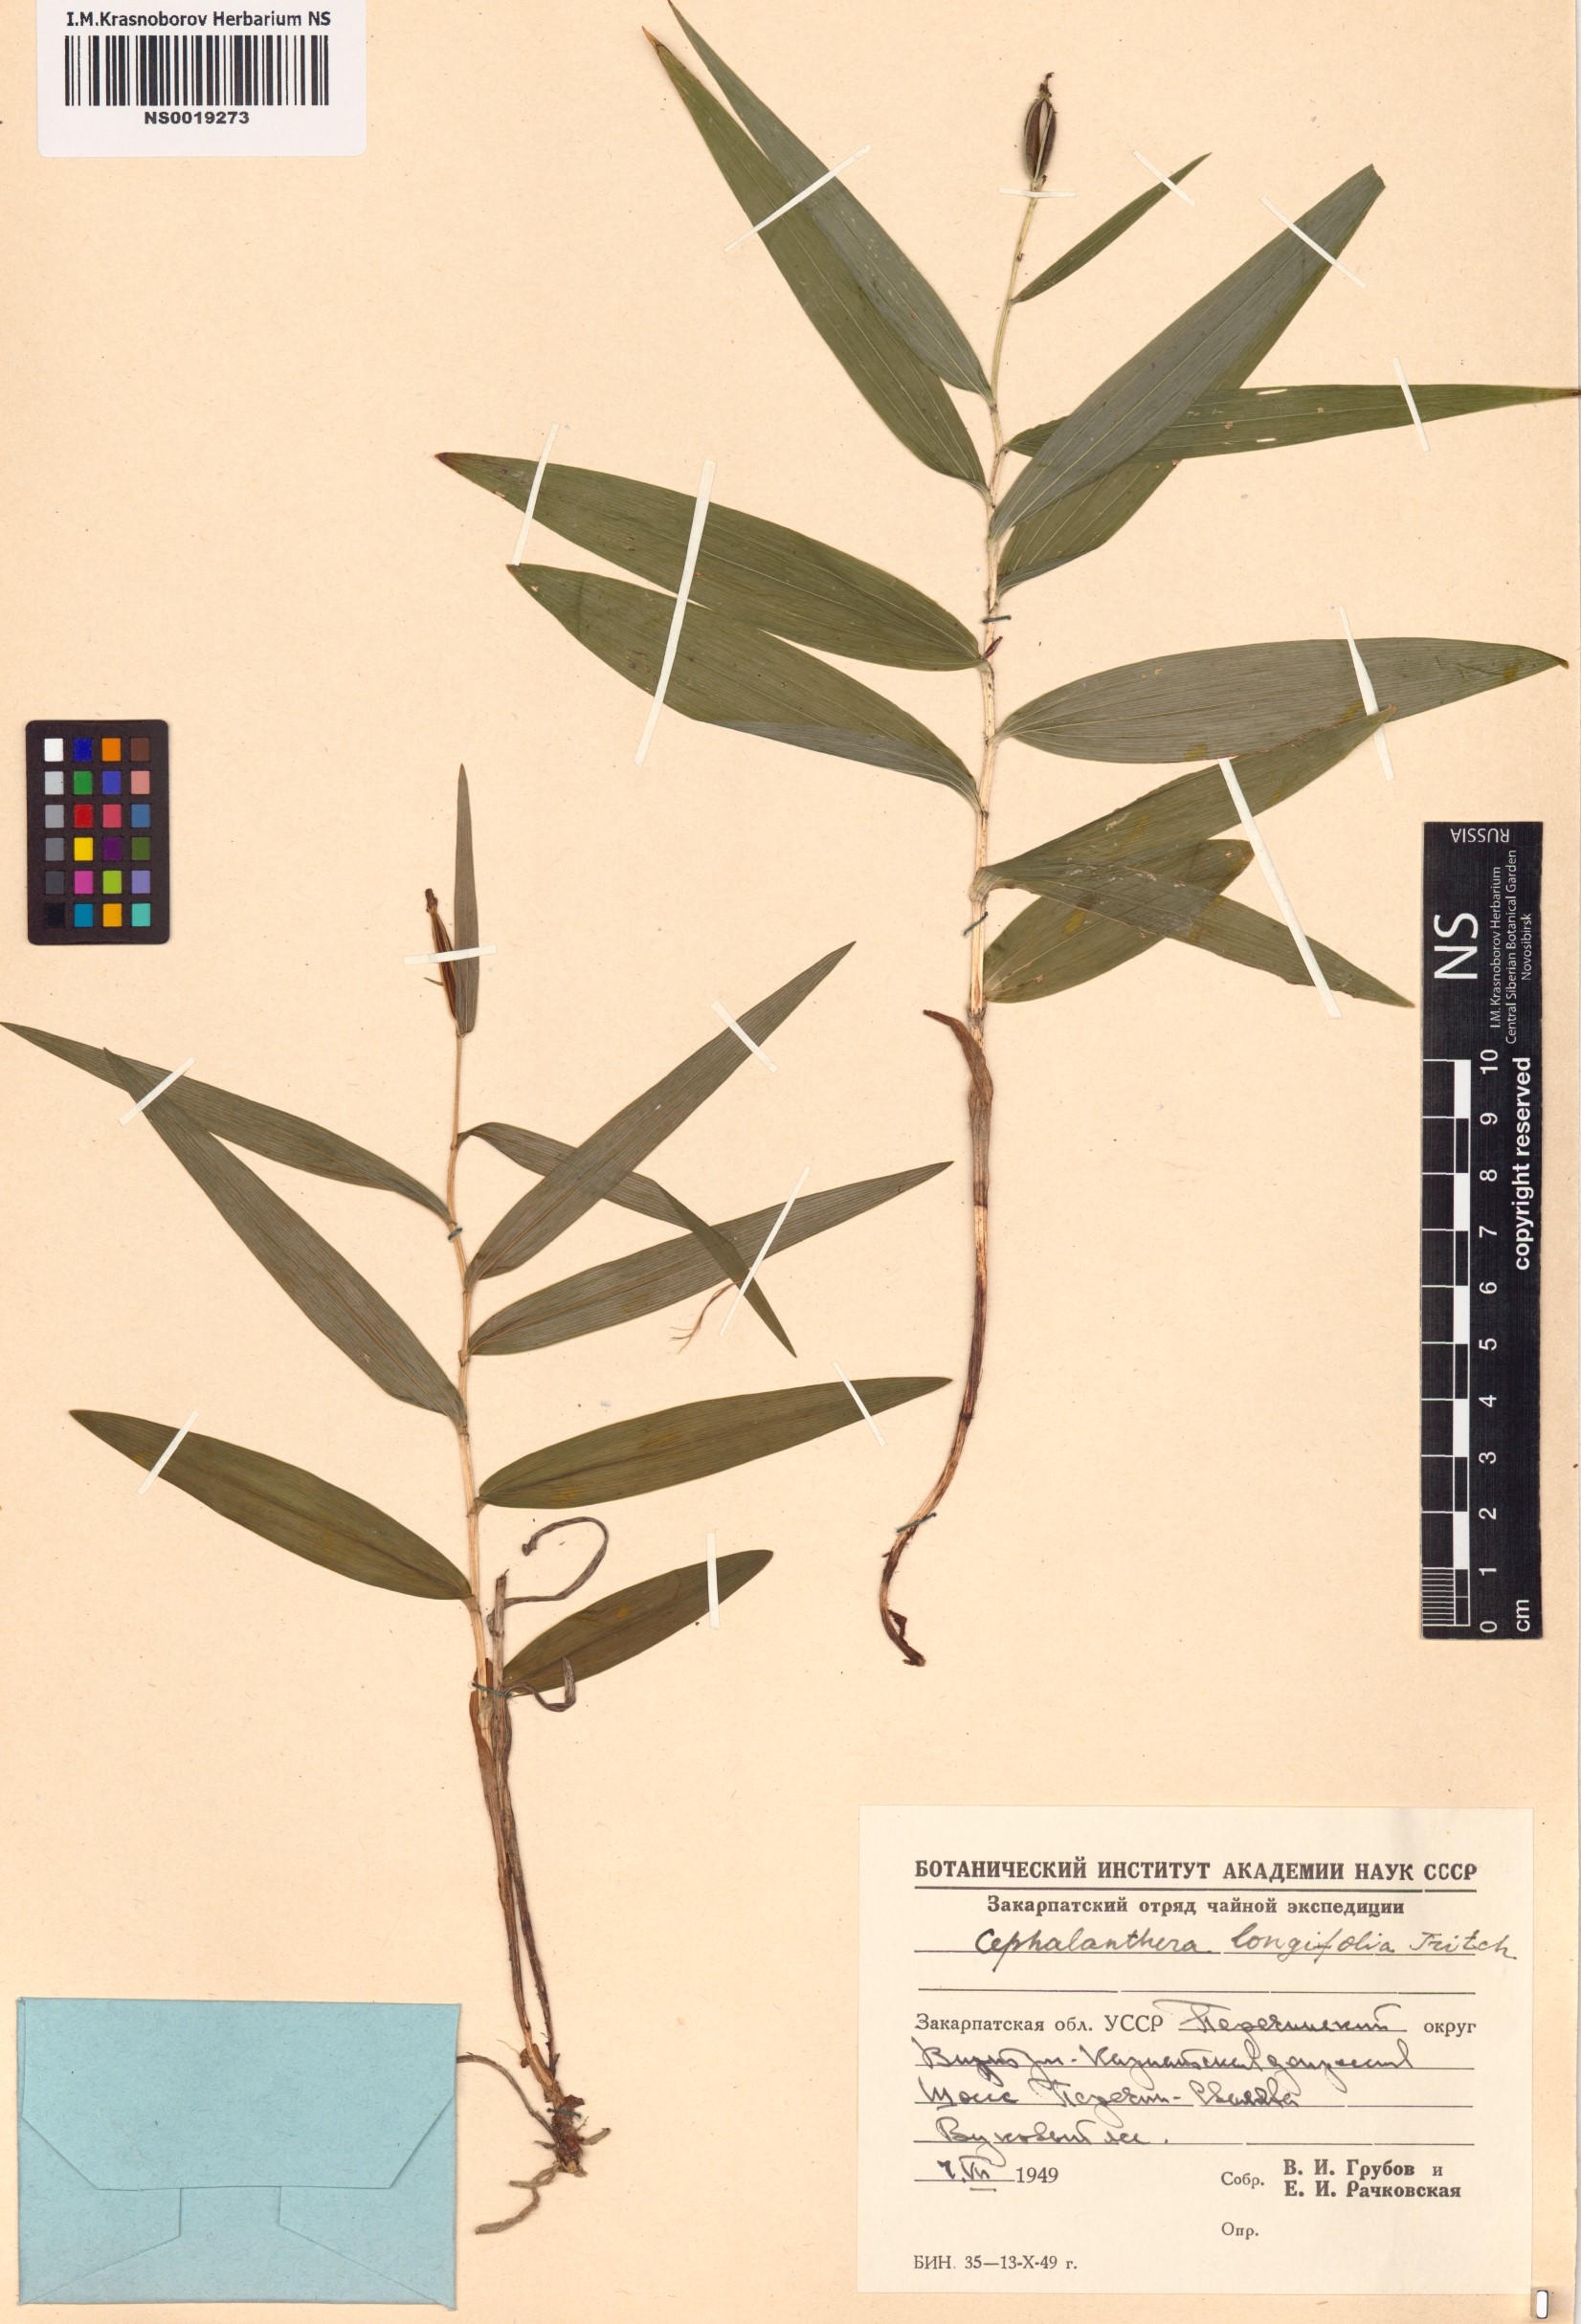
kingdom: Plantae
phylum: Tracheophyta
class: Liliopsida
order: Asparagales
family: Orchidaceae
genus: Cephalanthera
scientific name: Cephalanthera longifolia
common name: Narrow-leaved helleborine
